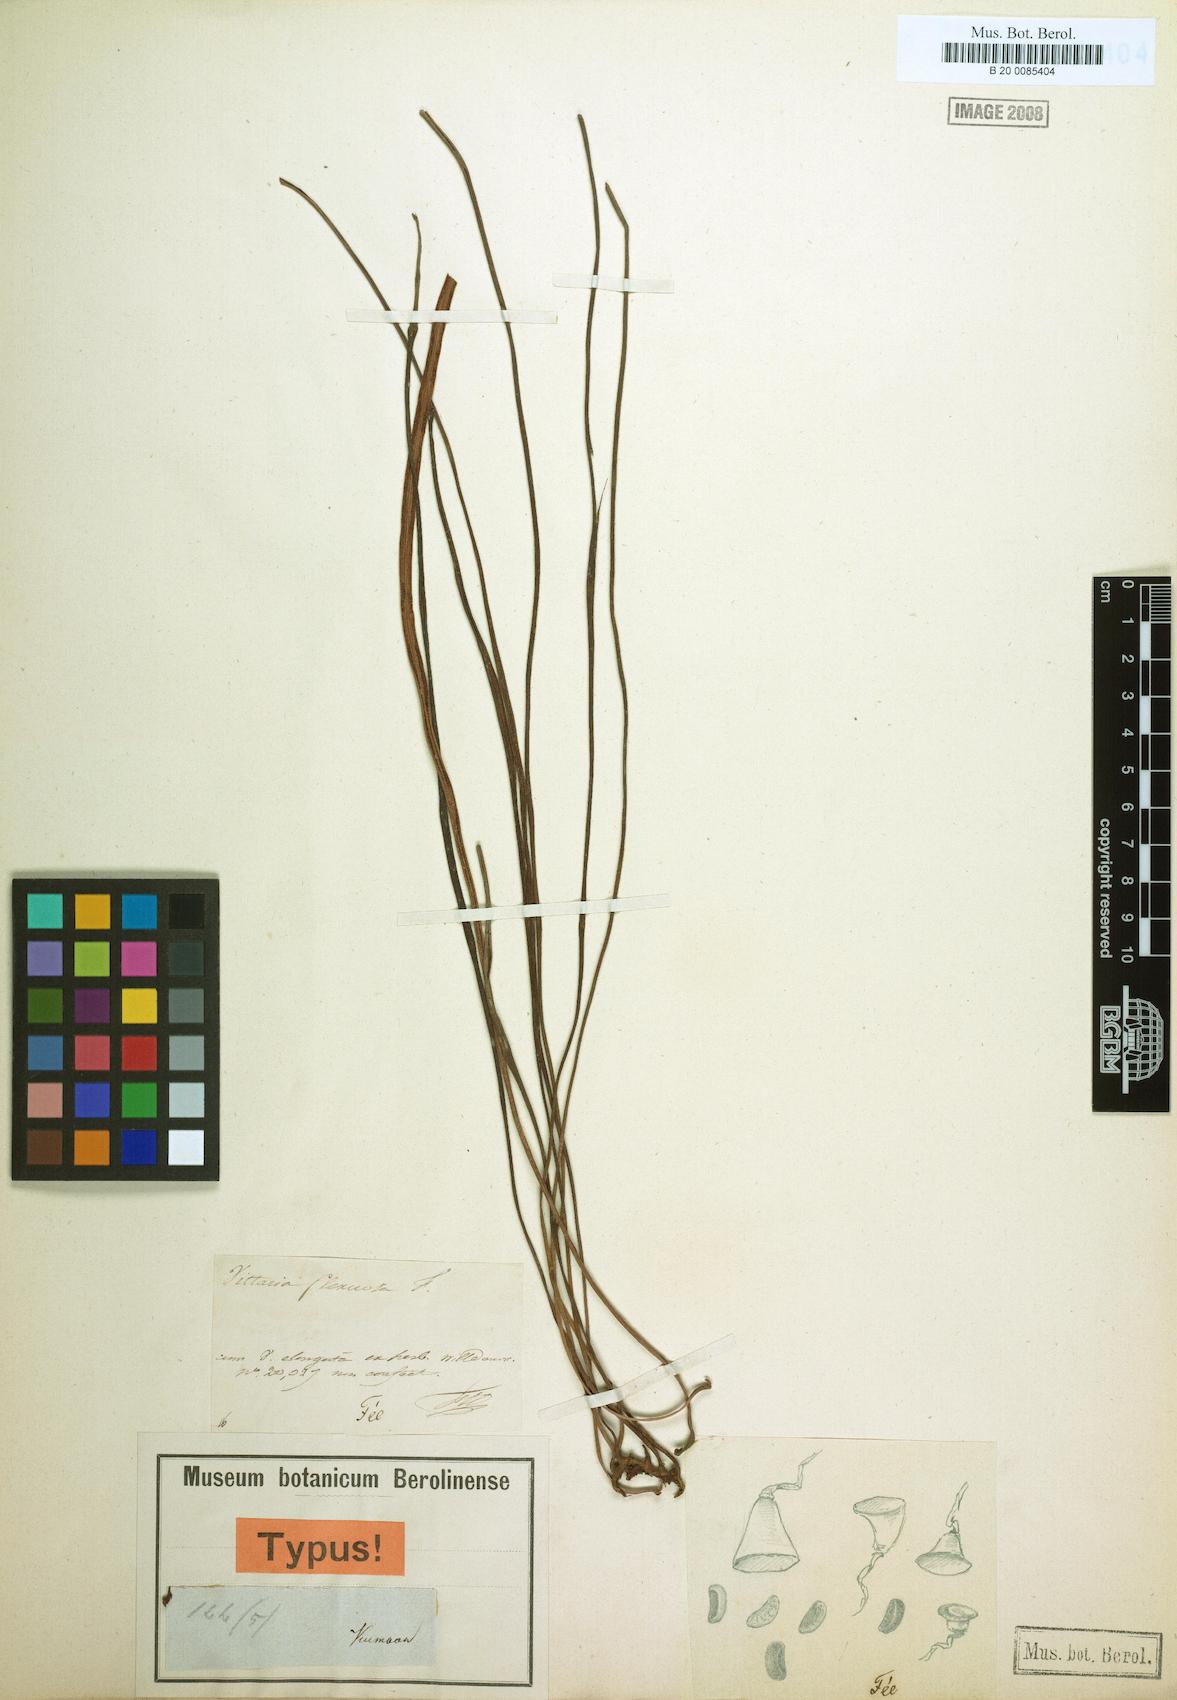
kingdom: Plantae
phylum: Tracheophyta
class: Polypodiopsida
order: Polypodiales
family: Pteridaceae
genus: Haplopteris
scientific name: Haplopteris flexuosa
